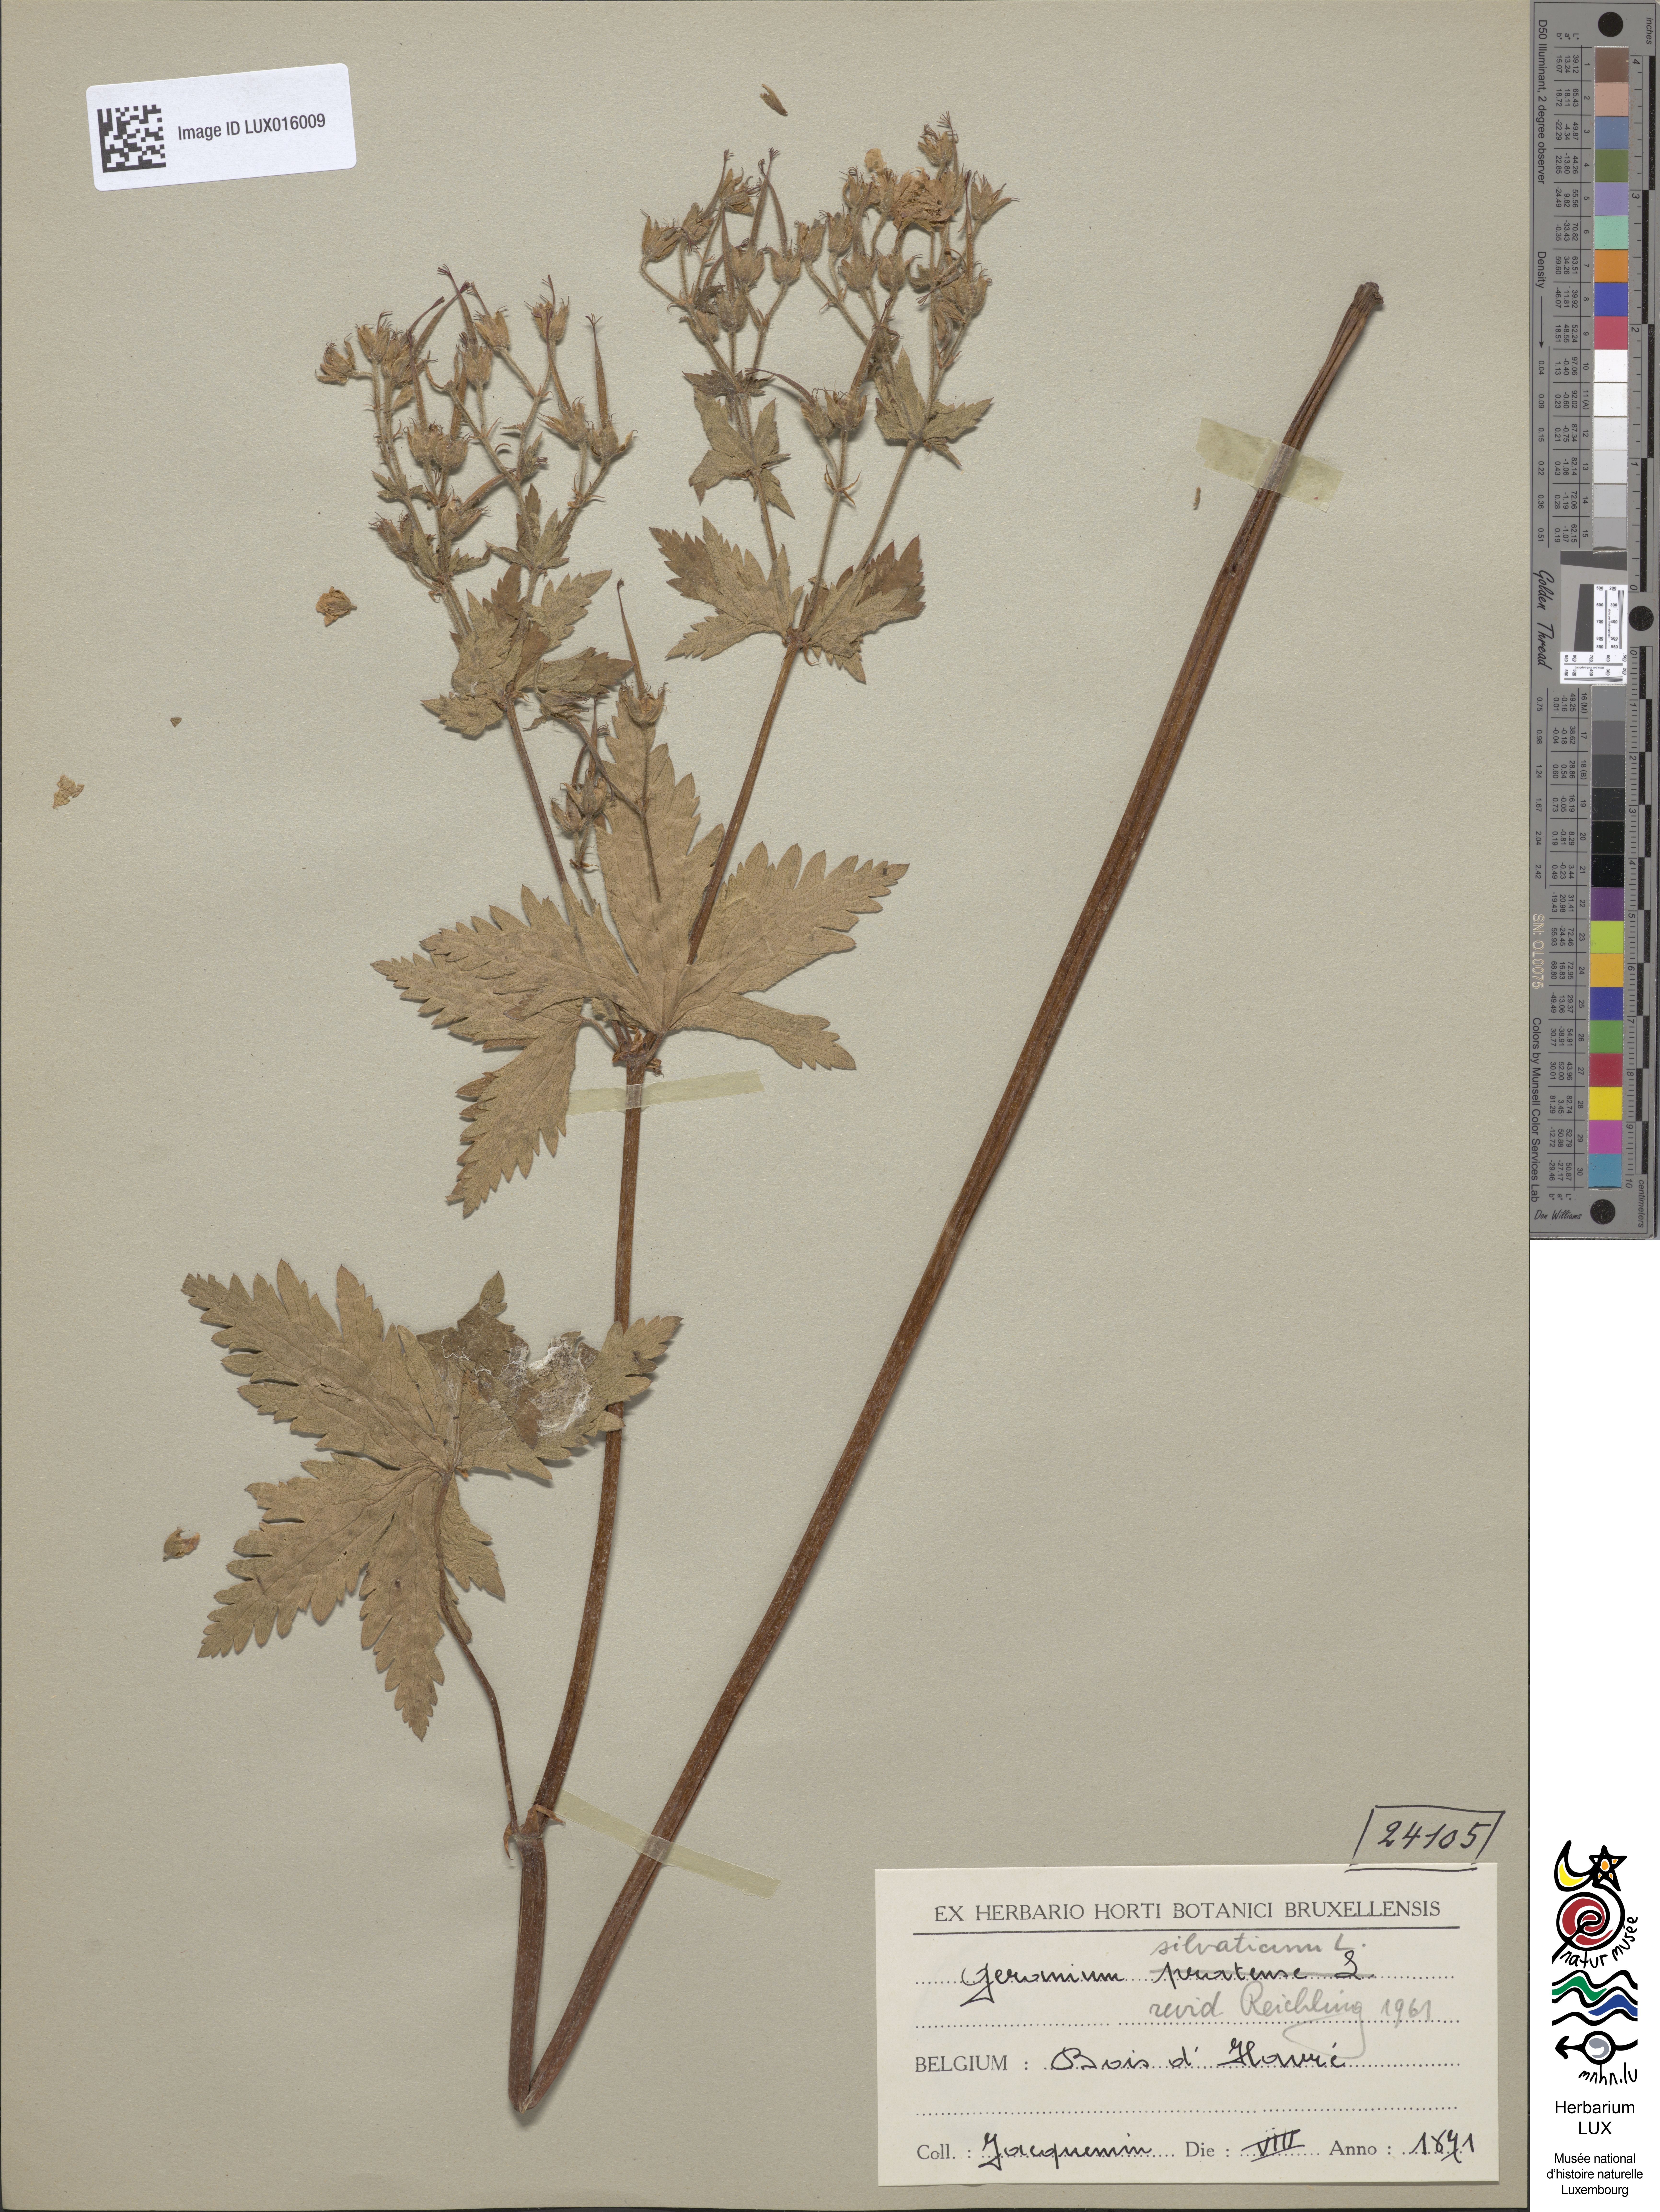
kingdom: Plantae
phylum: Tracheophyta
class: Magnoliopsida
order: Geraniales
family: Geraniaceae
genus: Geranium
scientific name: Geranium sylvaticum
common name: Wood crane's-bill
